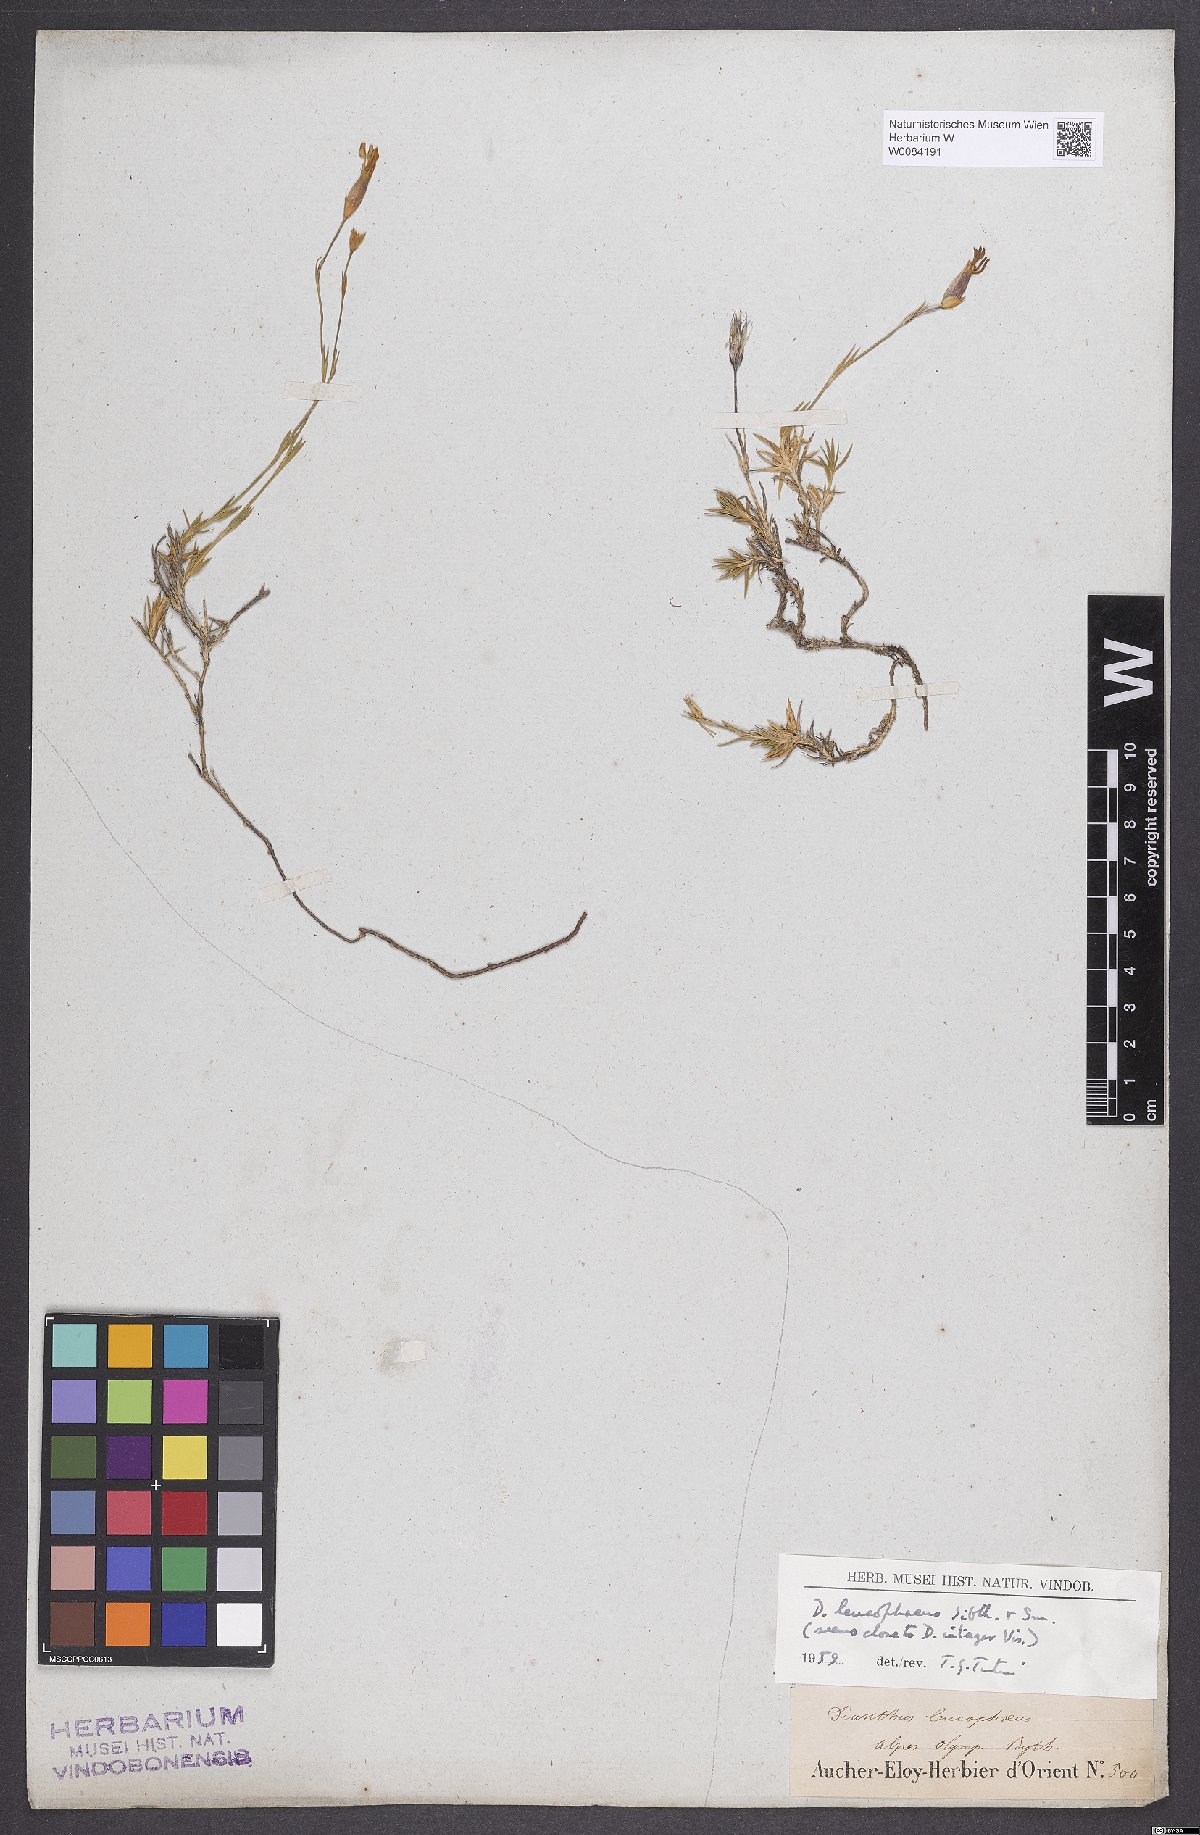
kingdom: Plantae
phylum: Tracheophyta
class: Magnoliopsida
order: Caryophyllales
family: Caryophyllaceae
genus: Dianthus
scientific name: Dianthus leucophaeus
